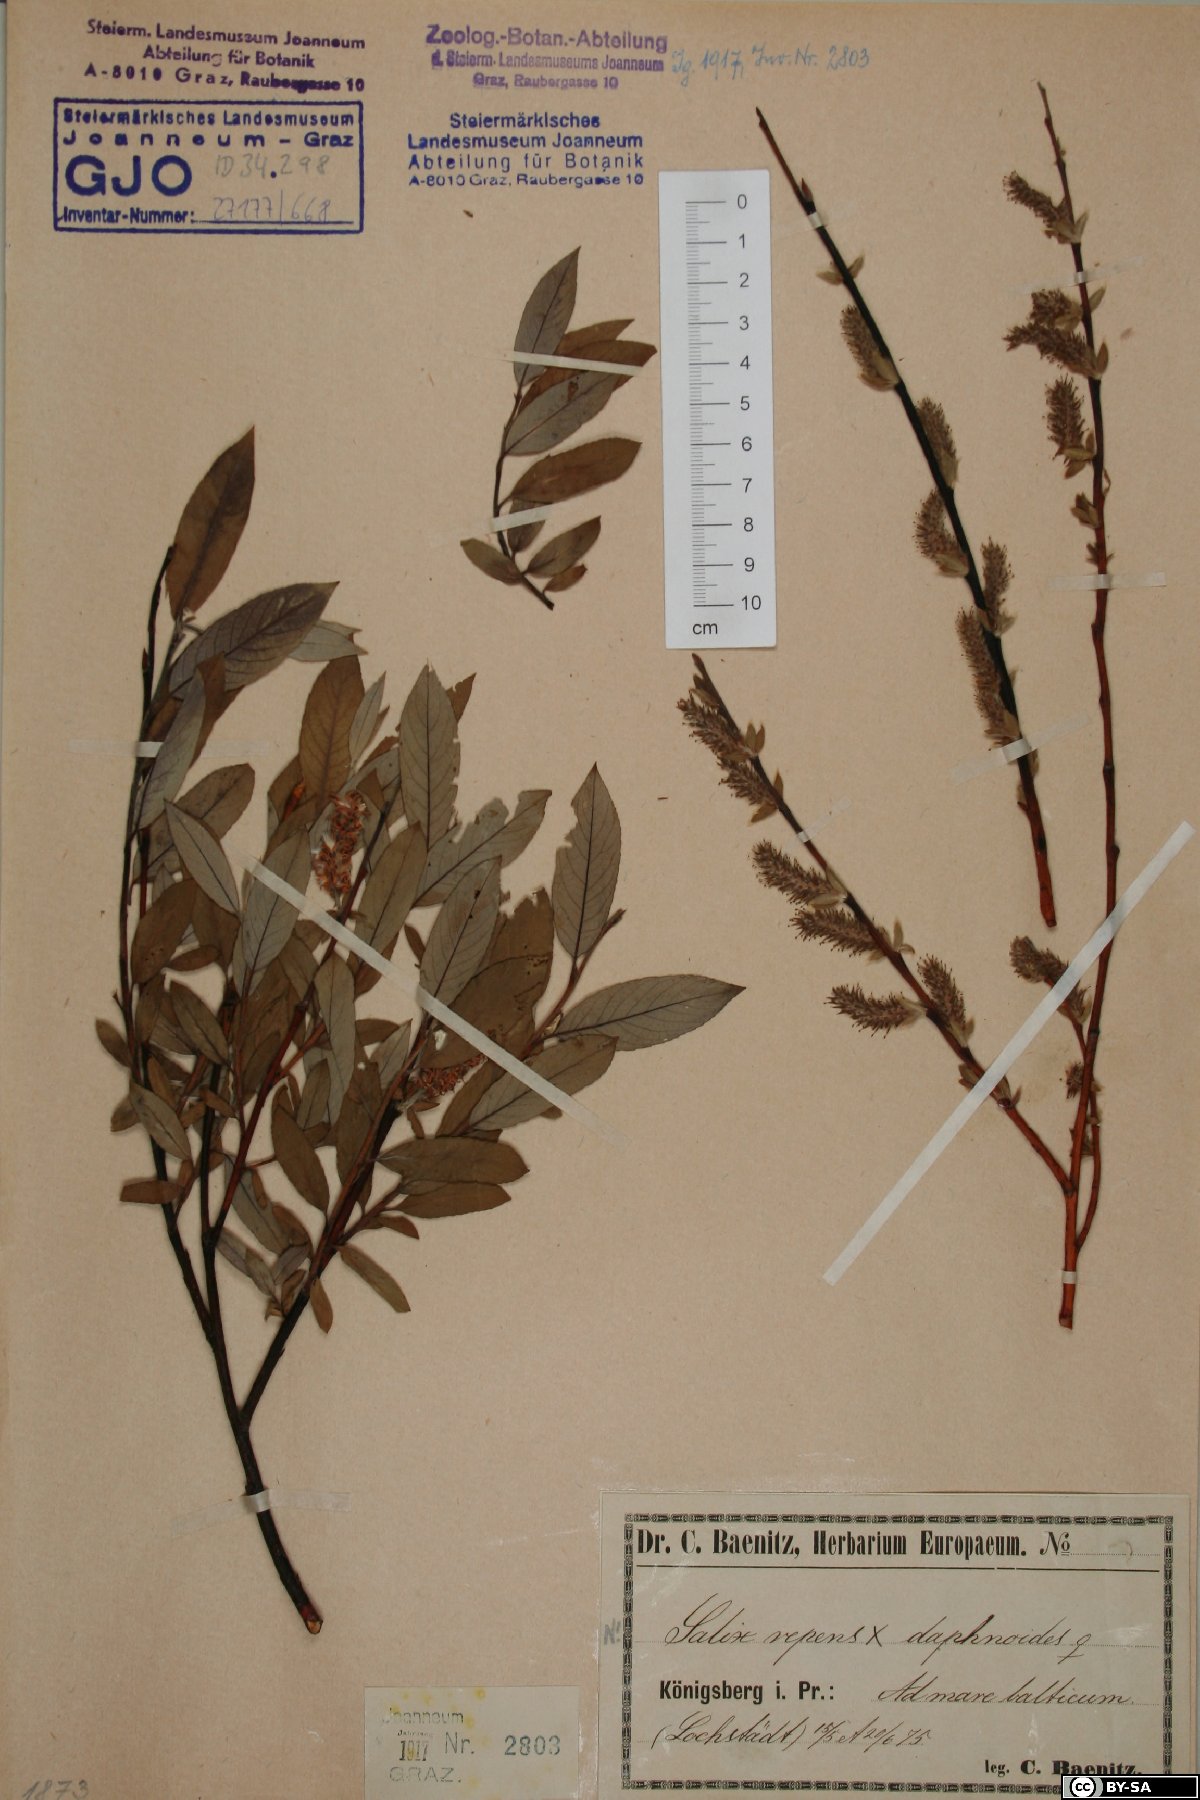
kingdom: Plantae
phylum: Tracheophyta
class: Magnoliopsida
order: Malpighiales
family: Salicaceae
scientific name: Salicaceae
